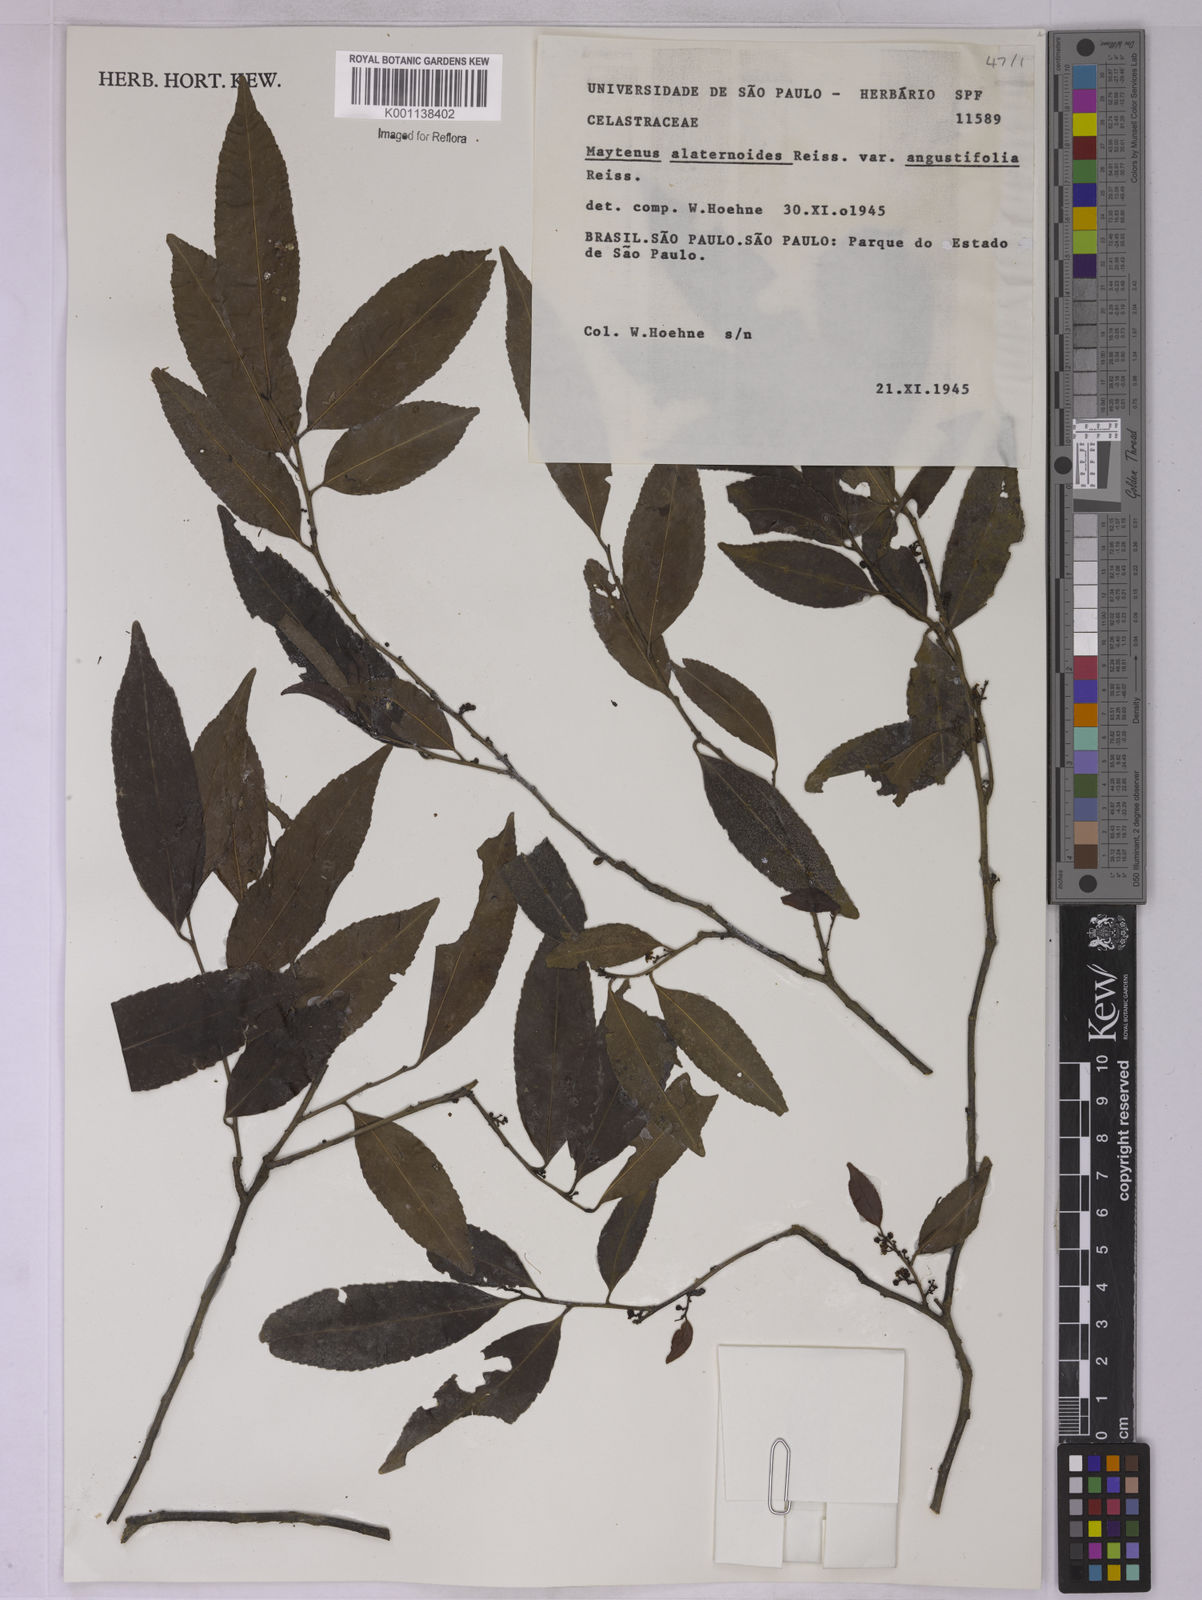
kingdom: Plantae
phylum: Tracheophyta
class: Magnoliopsida
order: Celastrales
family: Celastraceae
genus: Maytenus
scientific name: Maytenus alaternoides
